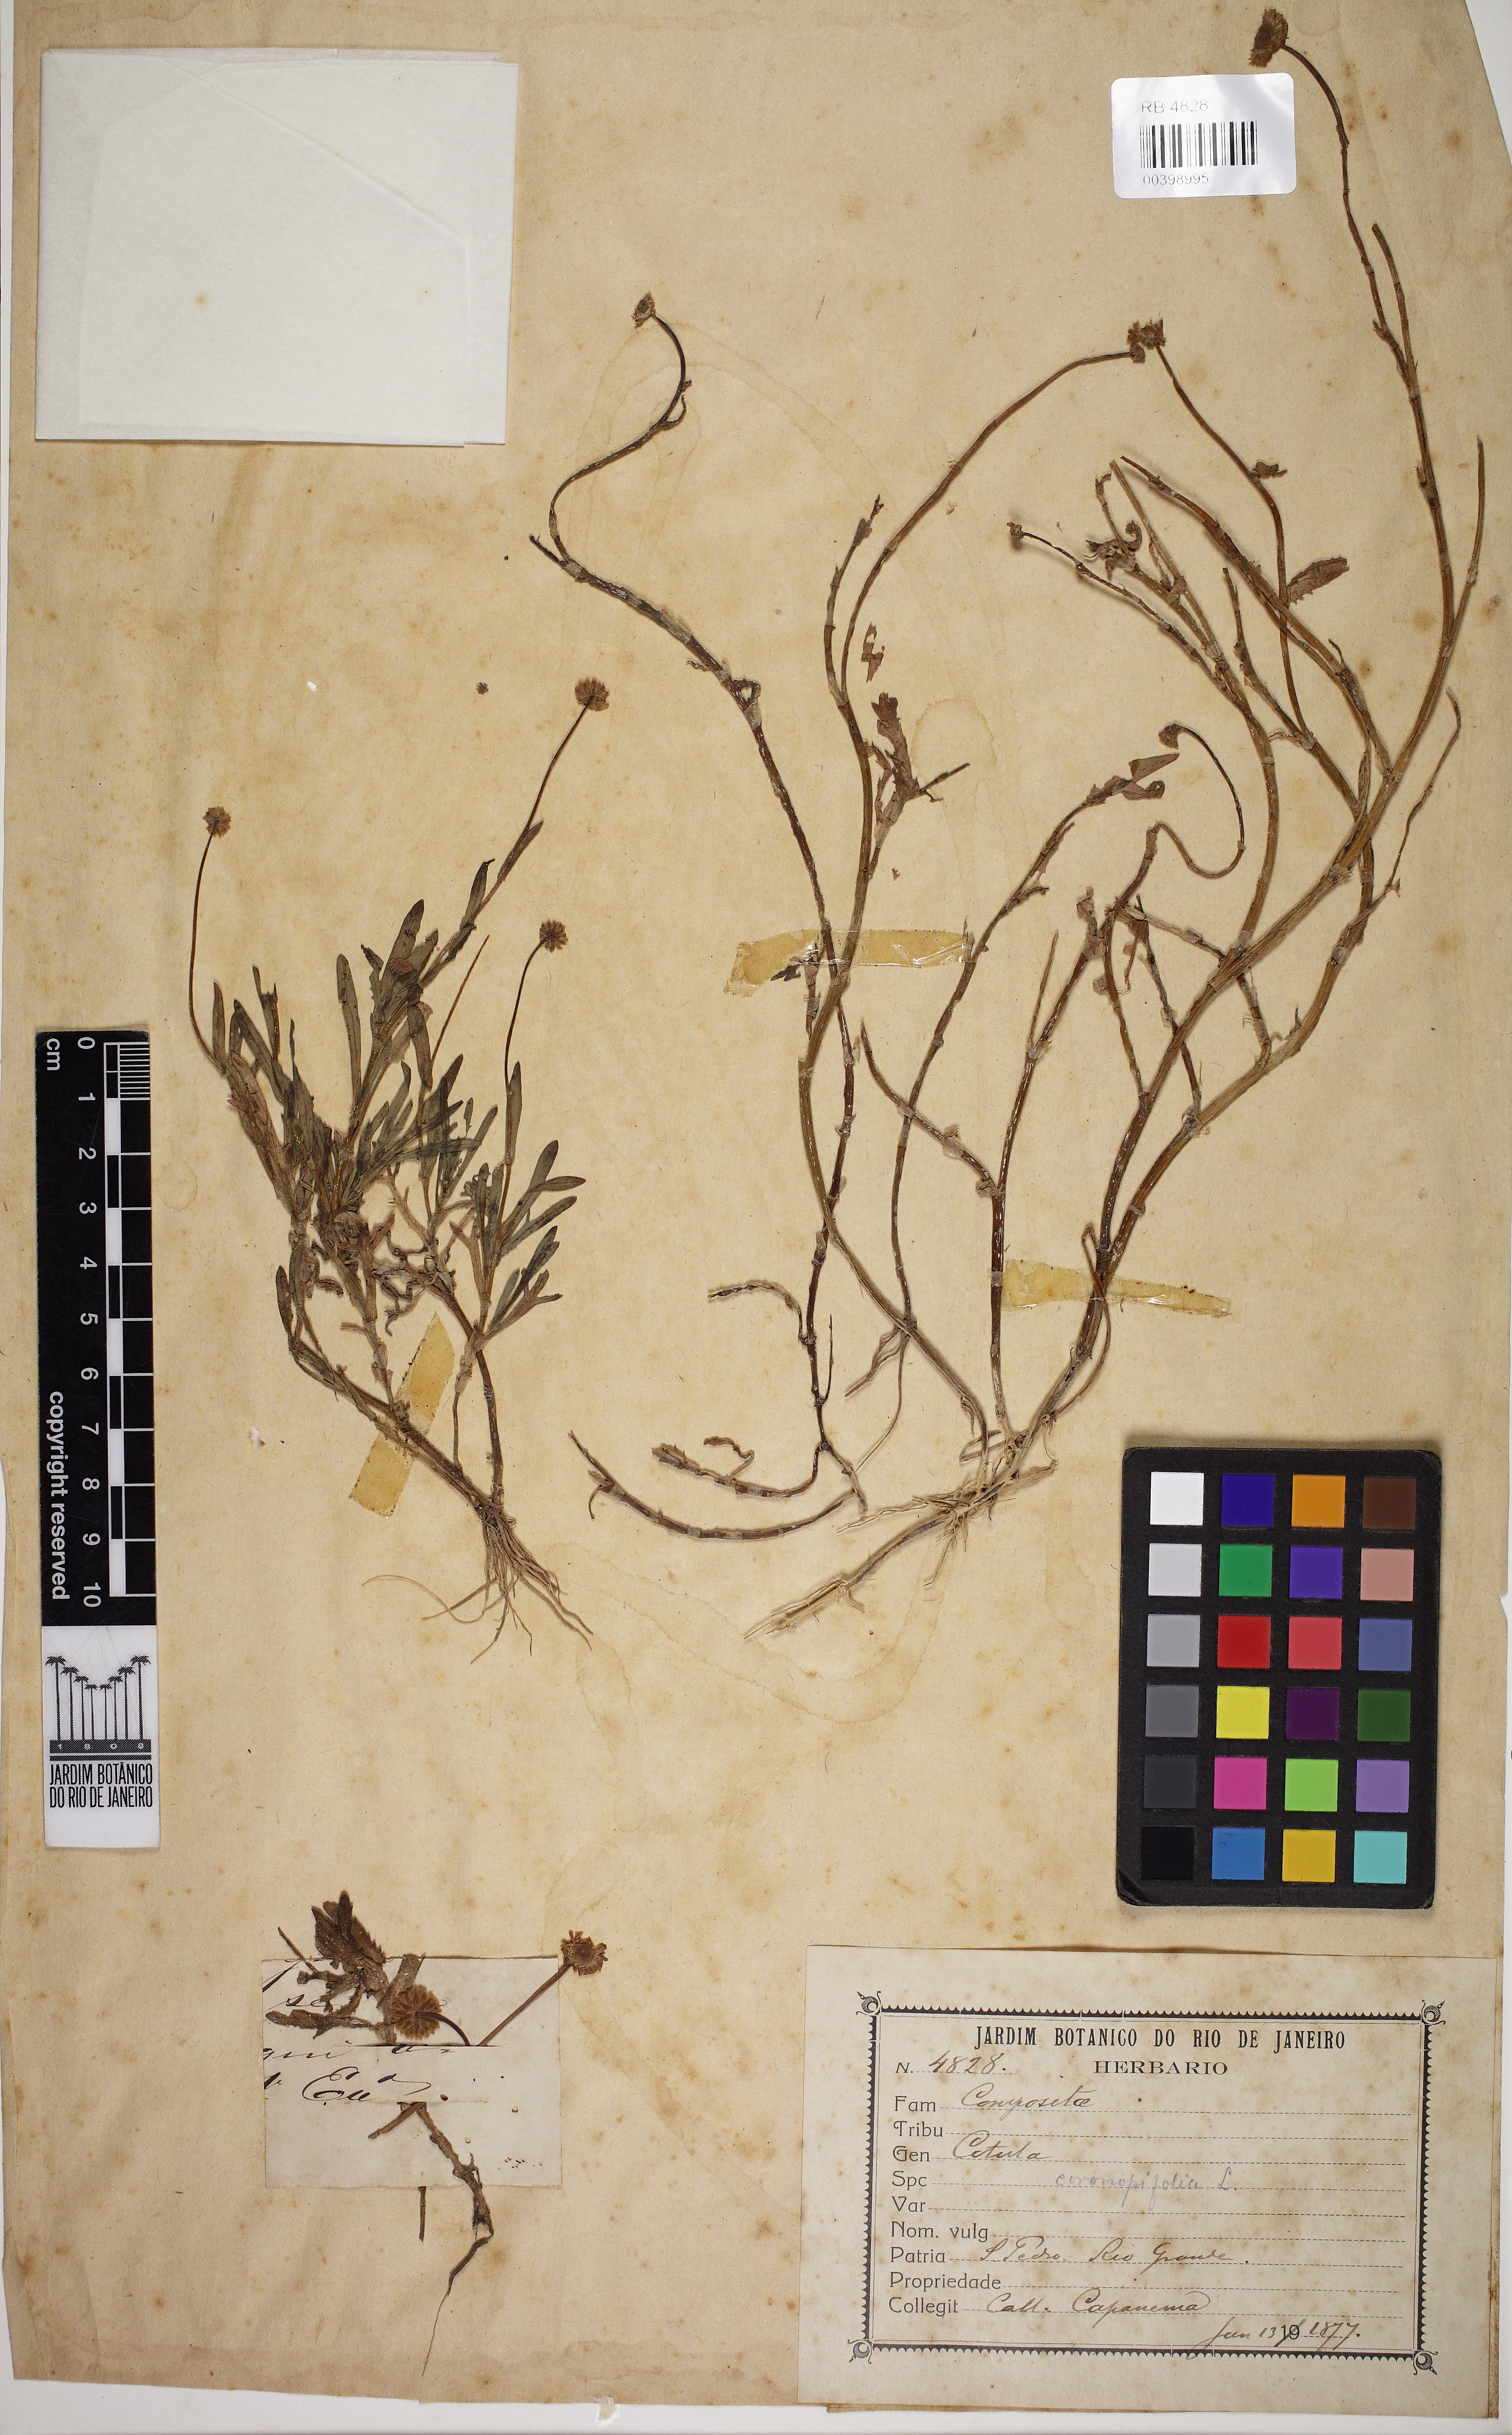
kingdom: Plantae
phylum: Tracheophyta
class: Magnoliopsida
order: Asterales
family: Asteraceae
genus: Cotula
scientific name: Cotula coronopifolia
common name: Buttonweed
